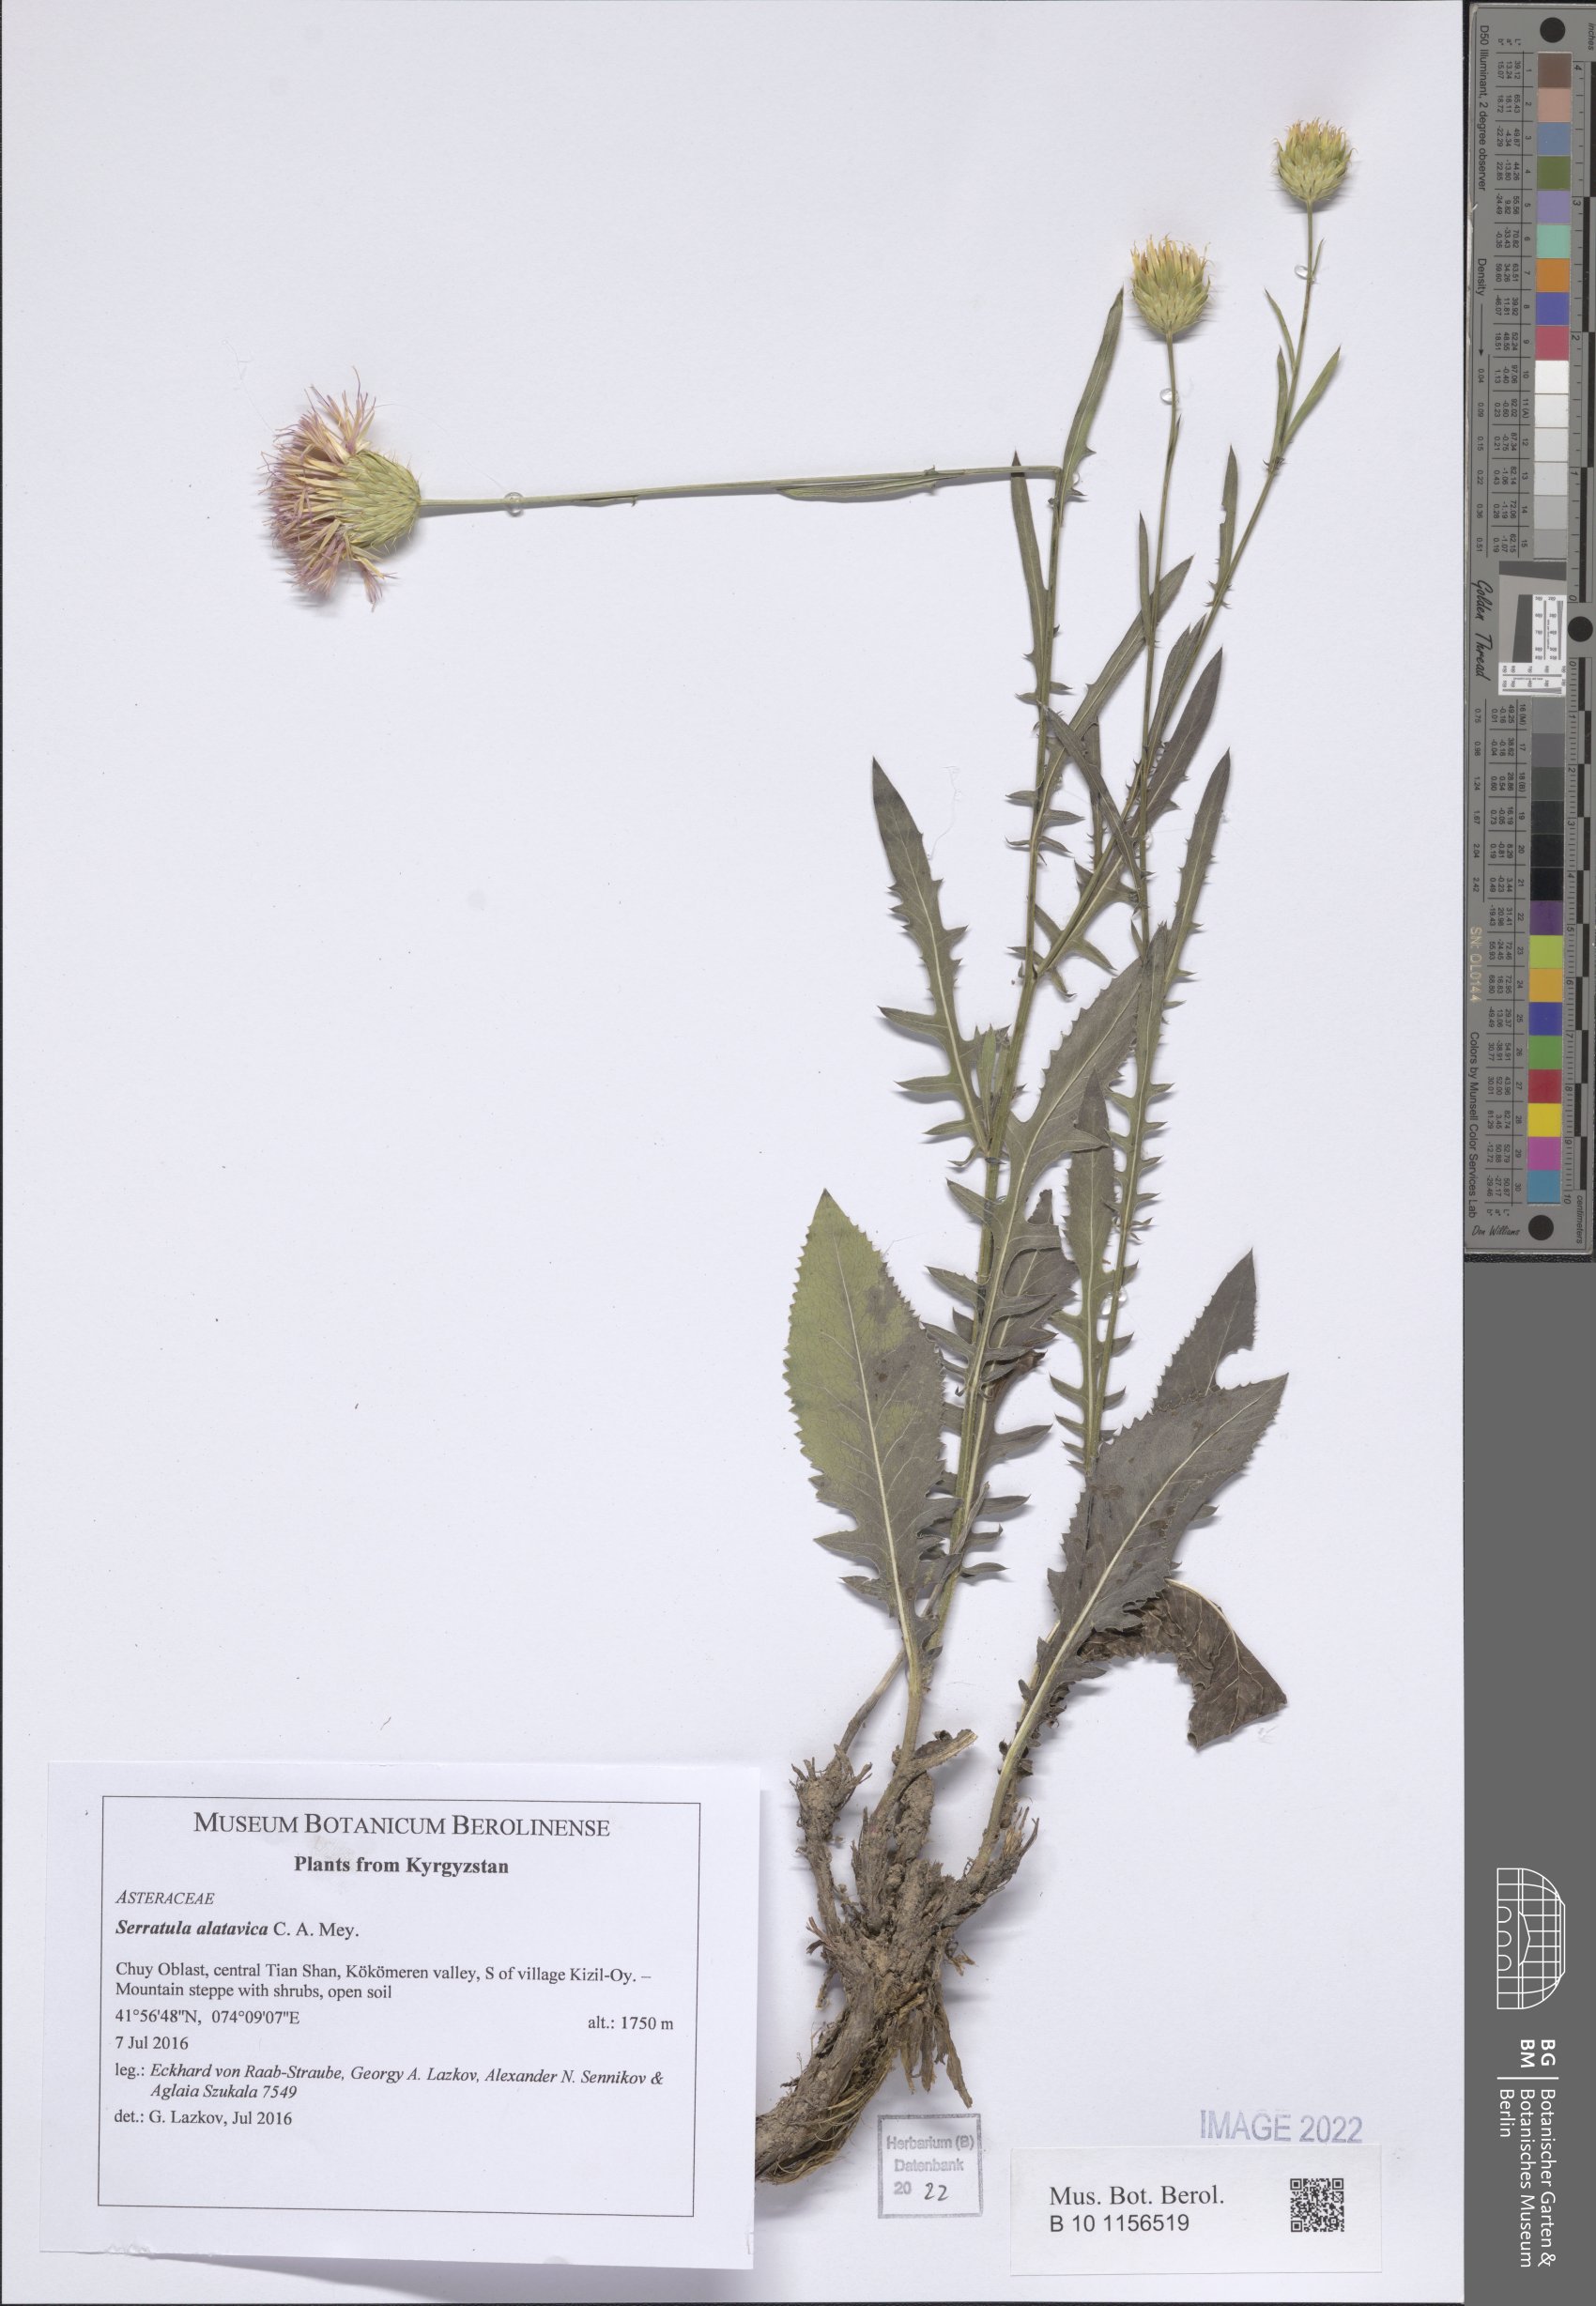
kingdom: Plantae
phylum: Tracheophyta
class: Magnoliopsida
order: Asterales
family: Asteraceae
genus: Klasea
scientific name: Klasea sogdiana
